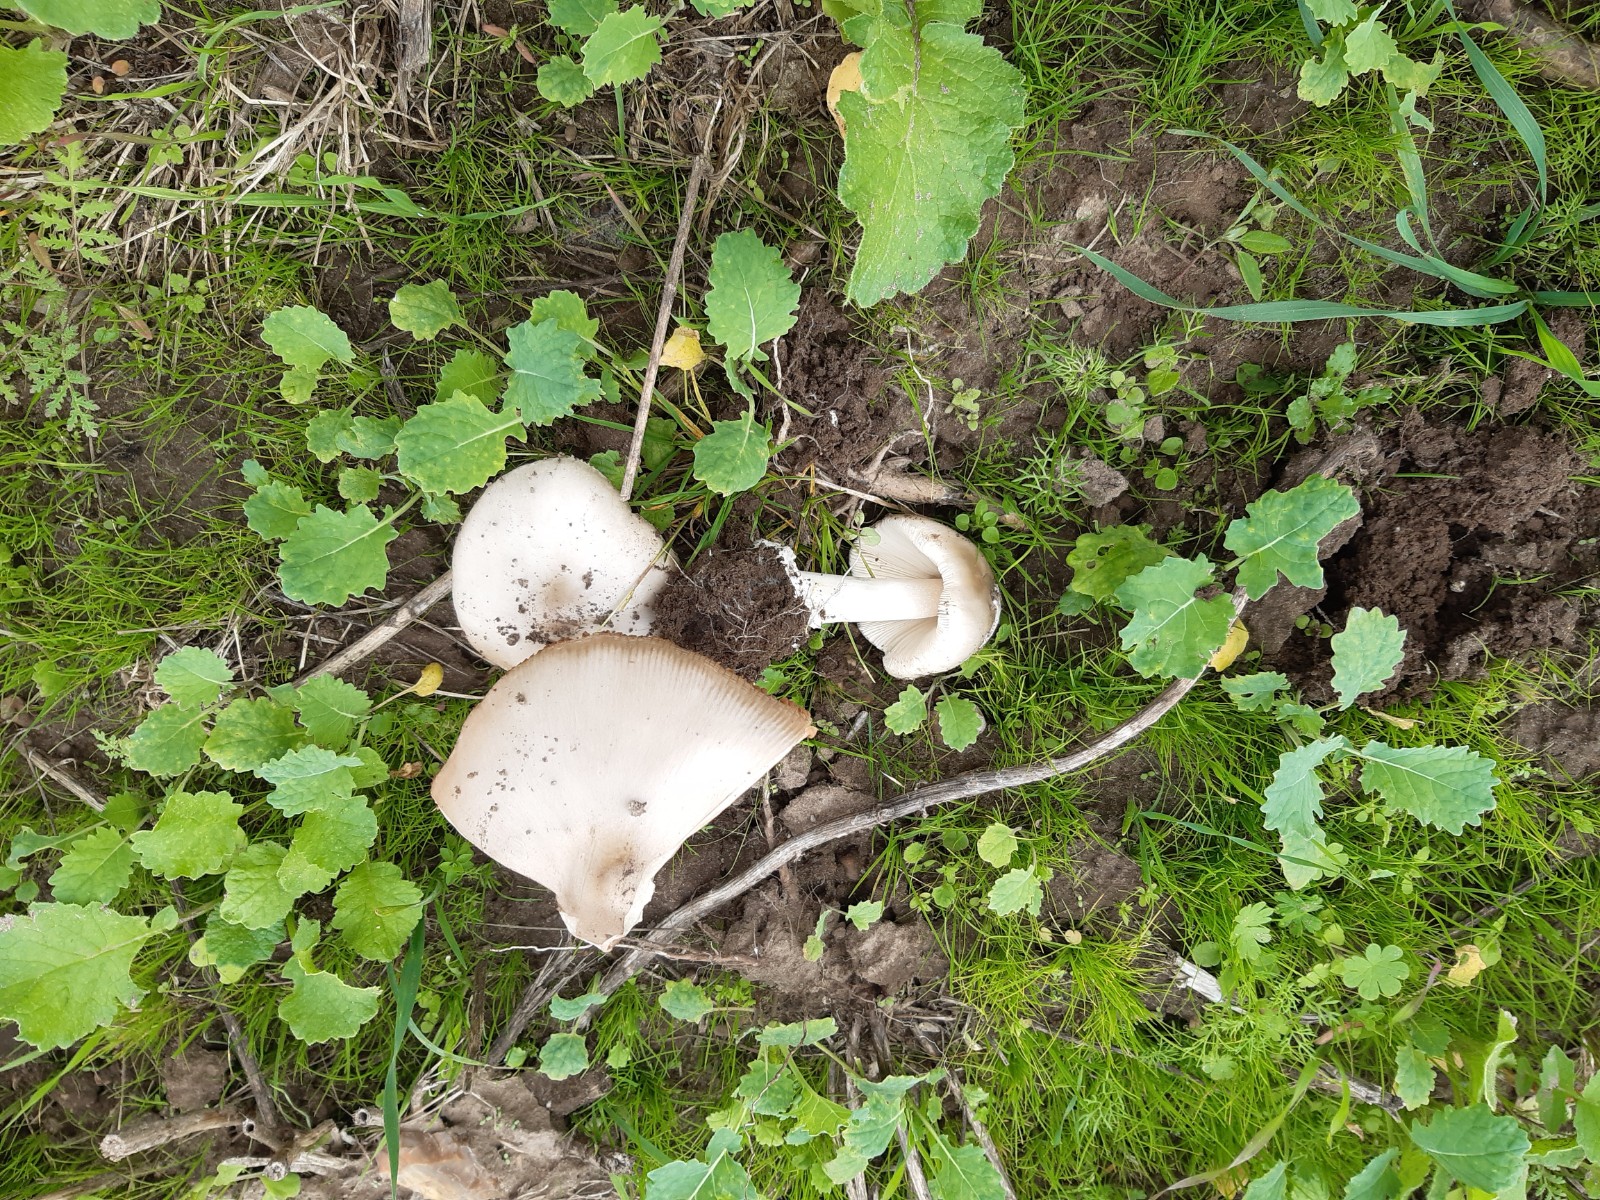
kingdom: Fungi
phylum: Basidiomycota
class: Agaricomycetes
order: Agaricales
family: Pluteaceae
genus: Volvopluteus
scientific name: Volvopluteus gloiocephalus
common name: høj posesvamp
